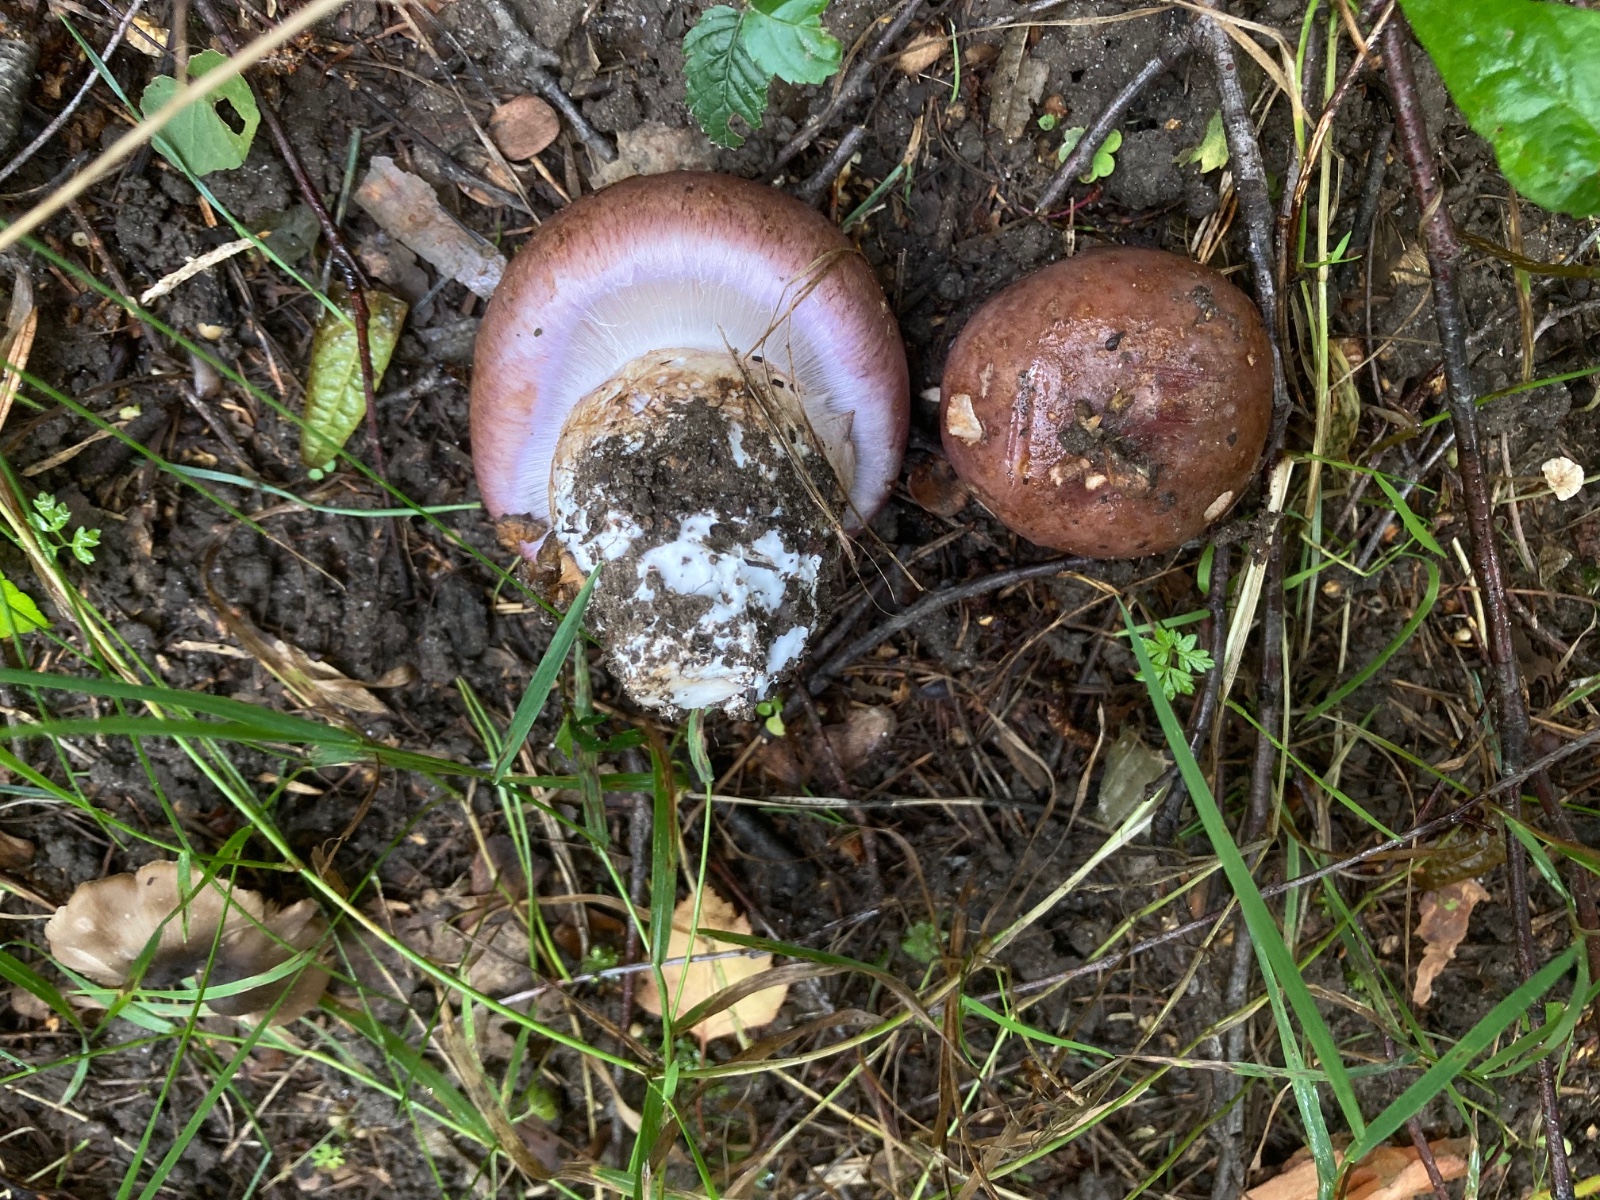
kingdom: Fungi
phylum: Basidiomycota
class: Agaricomycetes
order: Agaricales
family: Cortinariaceae
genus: Phlegmacium
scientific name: Phlegmacium balteatocumatile
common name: violettrådet slørhat
